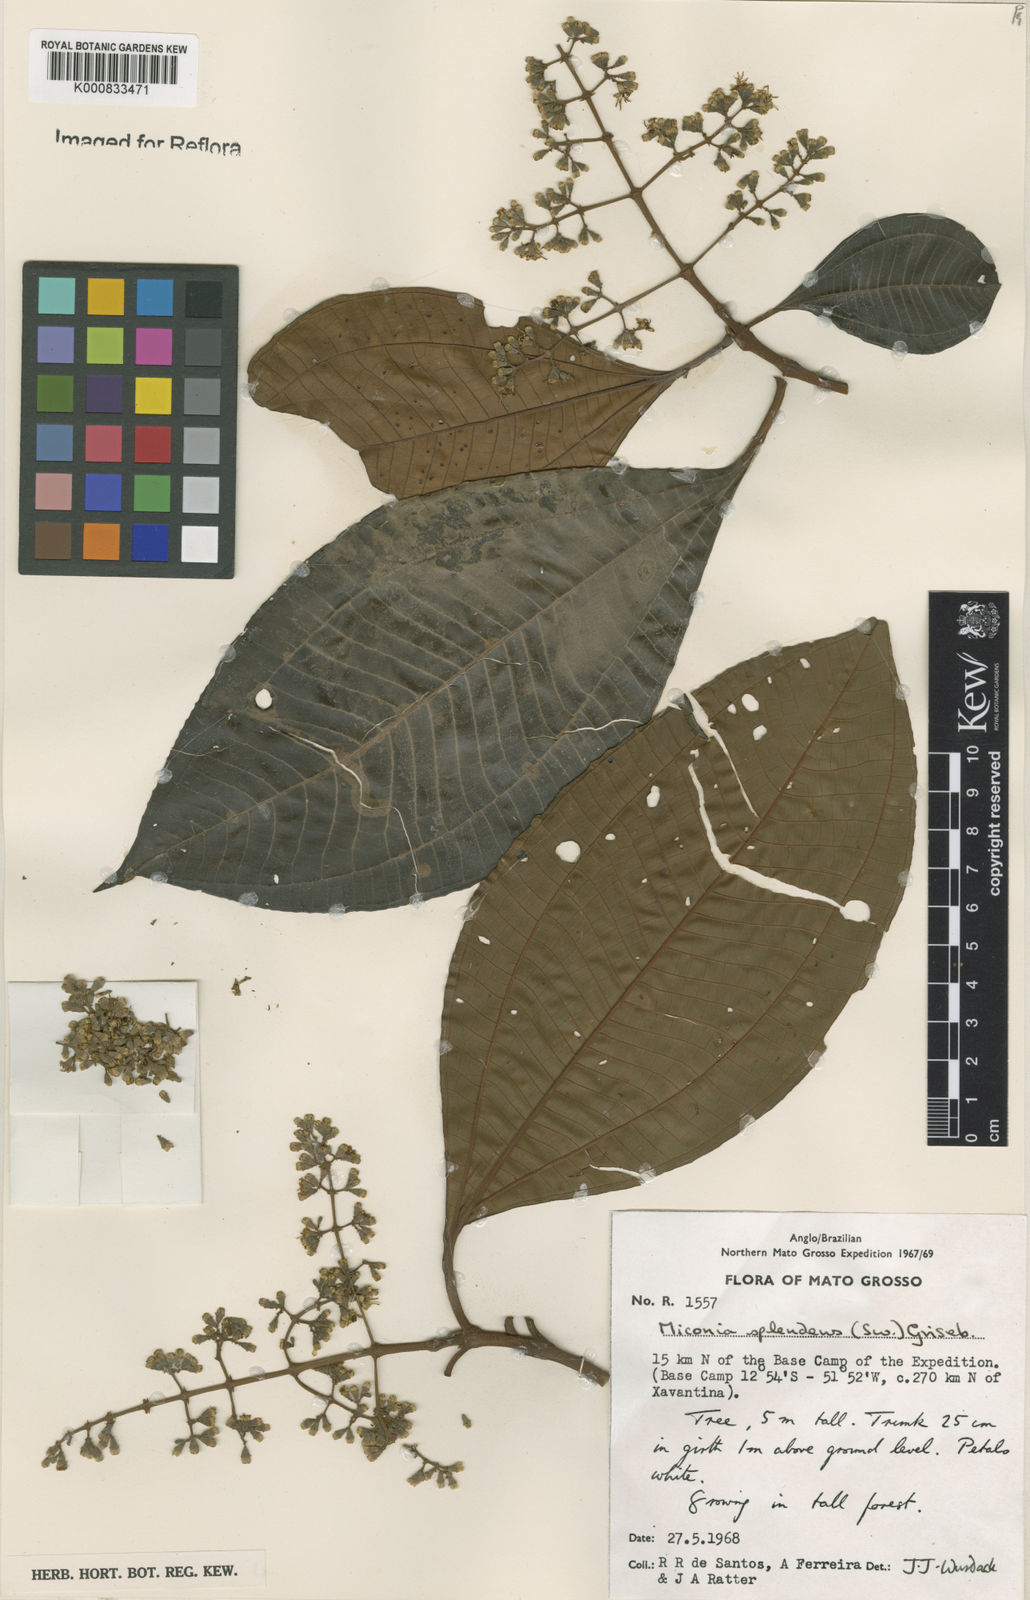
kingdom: Plantae
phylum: Tracheophyta
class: Magnoliopsida
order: Myrtales
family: Melastomataceae
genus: Miconia
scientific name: Miconia splendens
